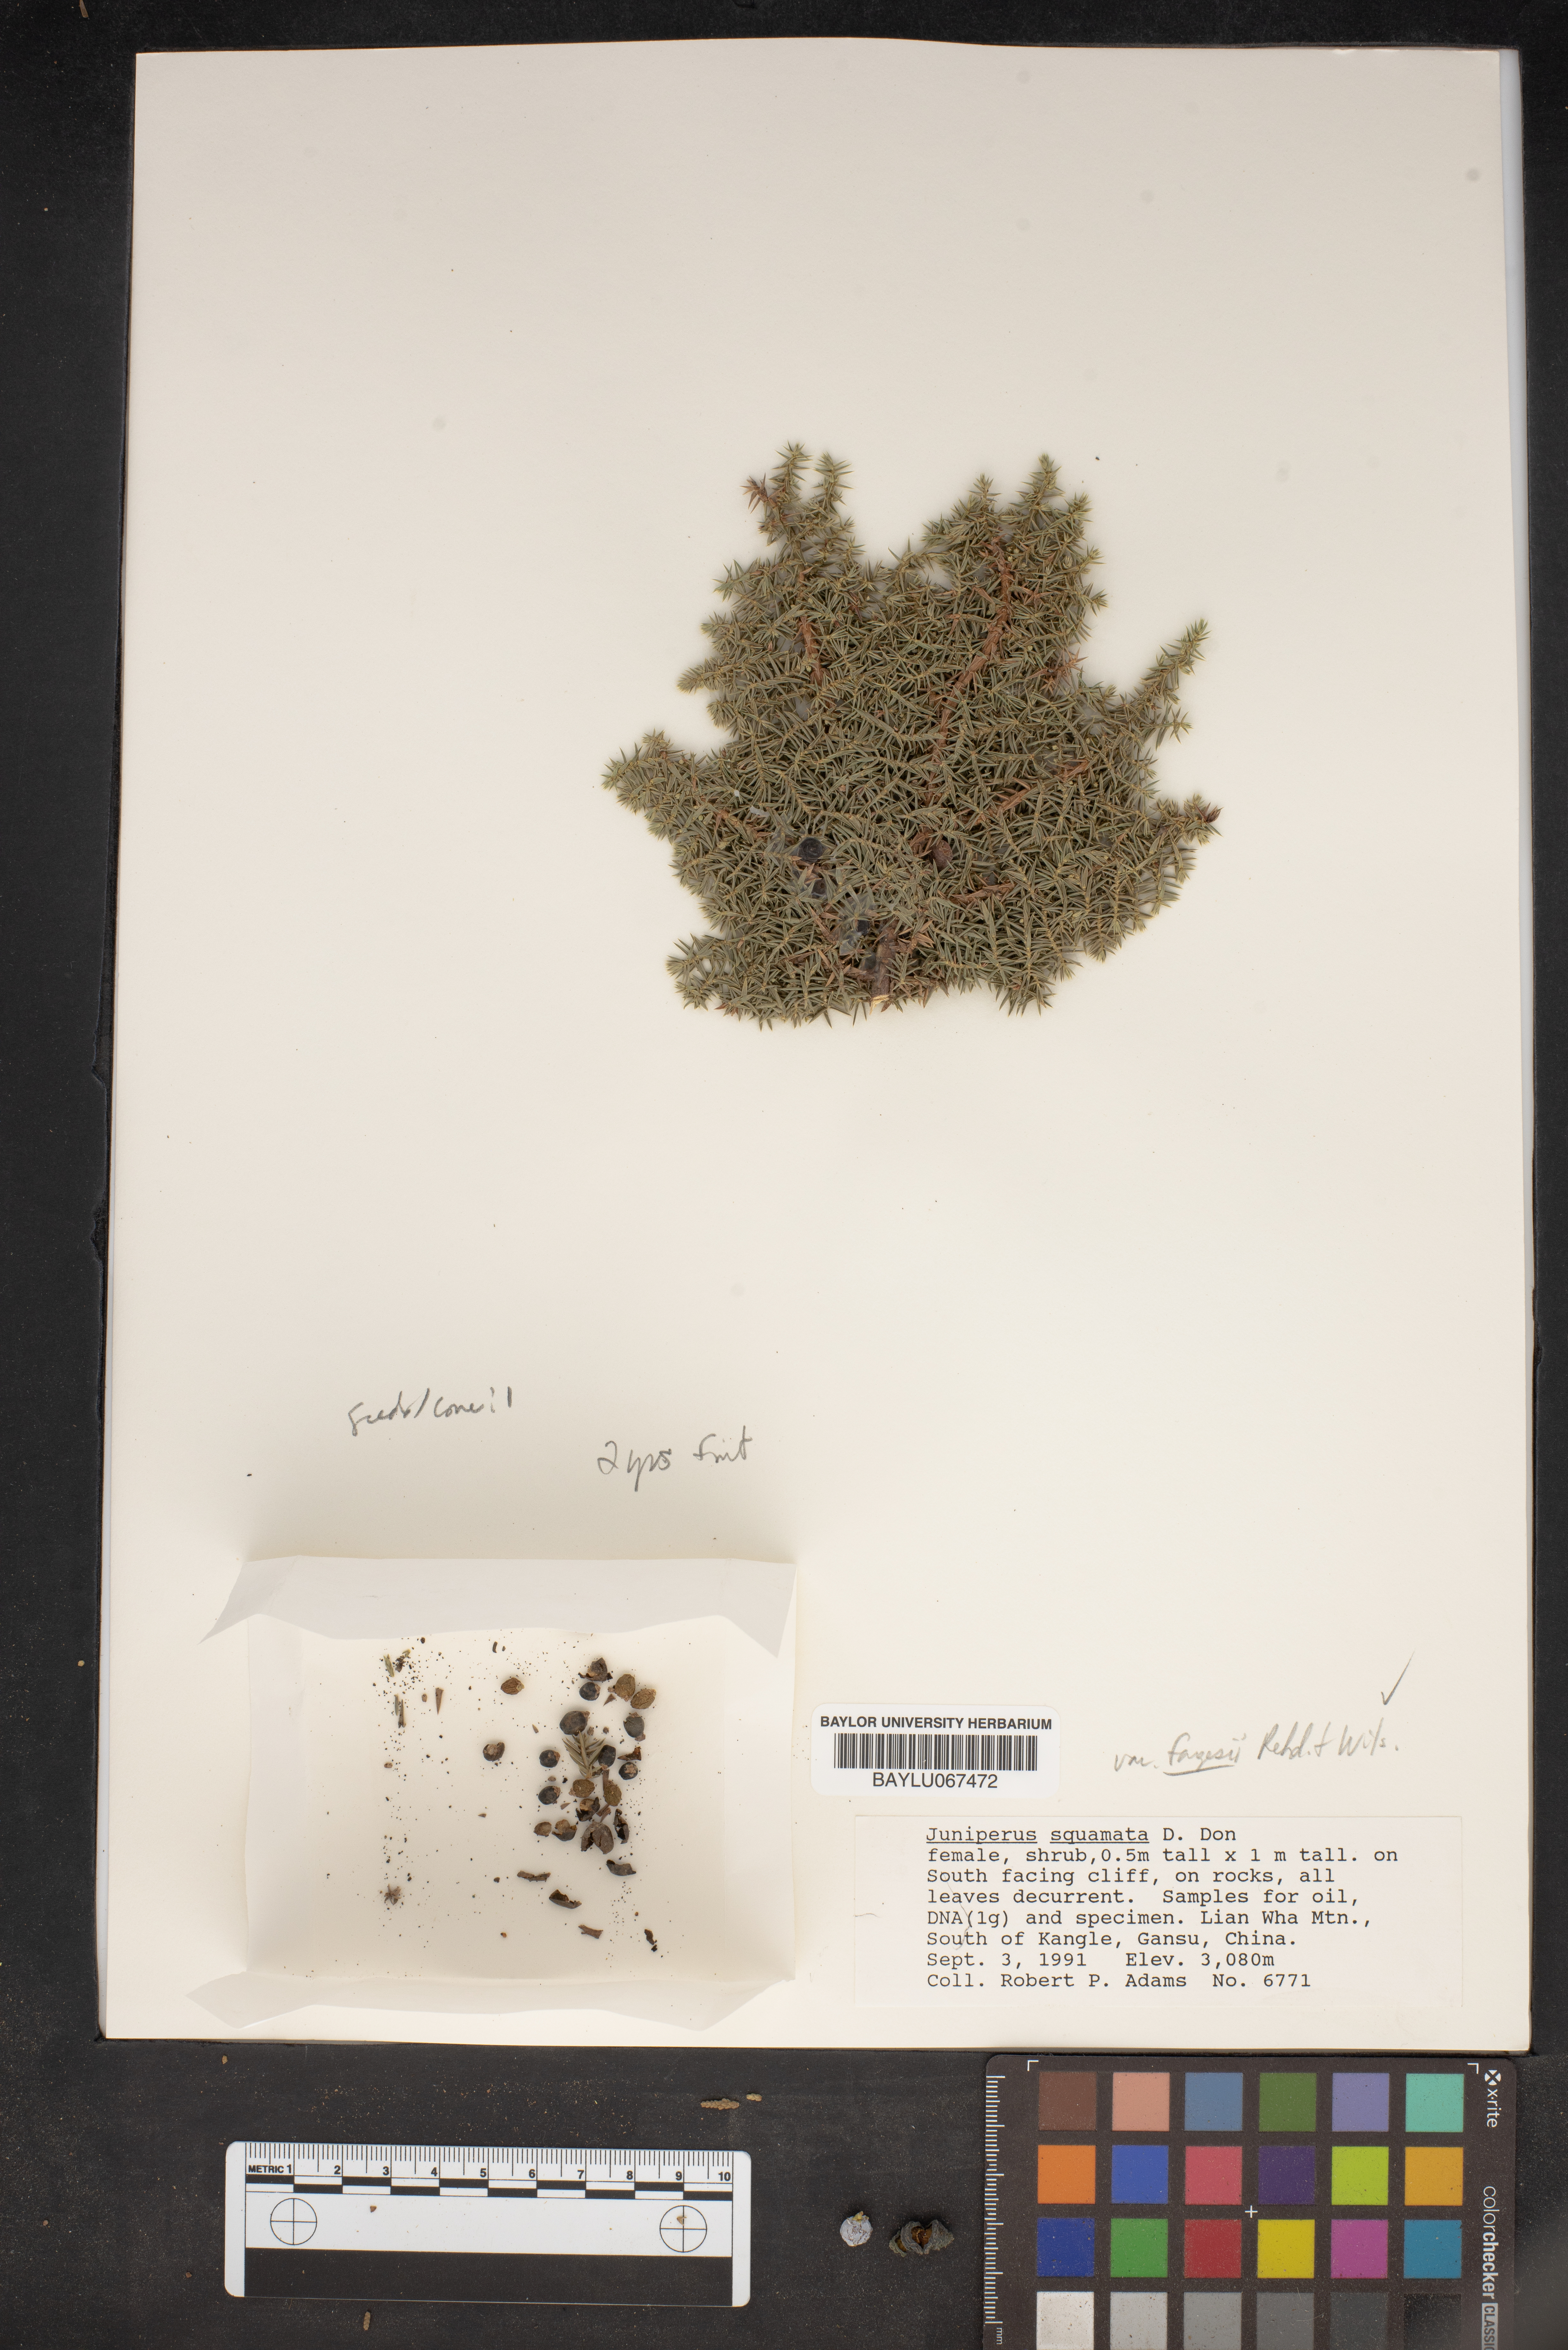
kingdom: Plantae
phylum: Tracheophyta
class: Pinopsida
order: Pinales
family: Cupressaceae
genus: Juniperus
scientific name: Juniperus squamata
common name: Flaky juniper
